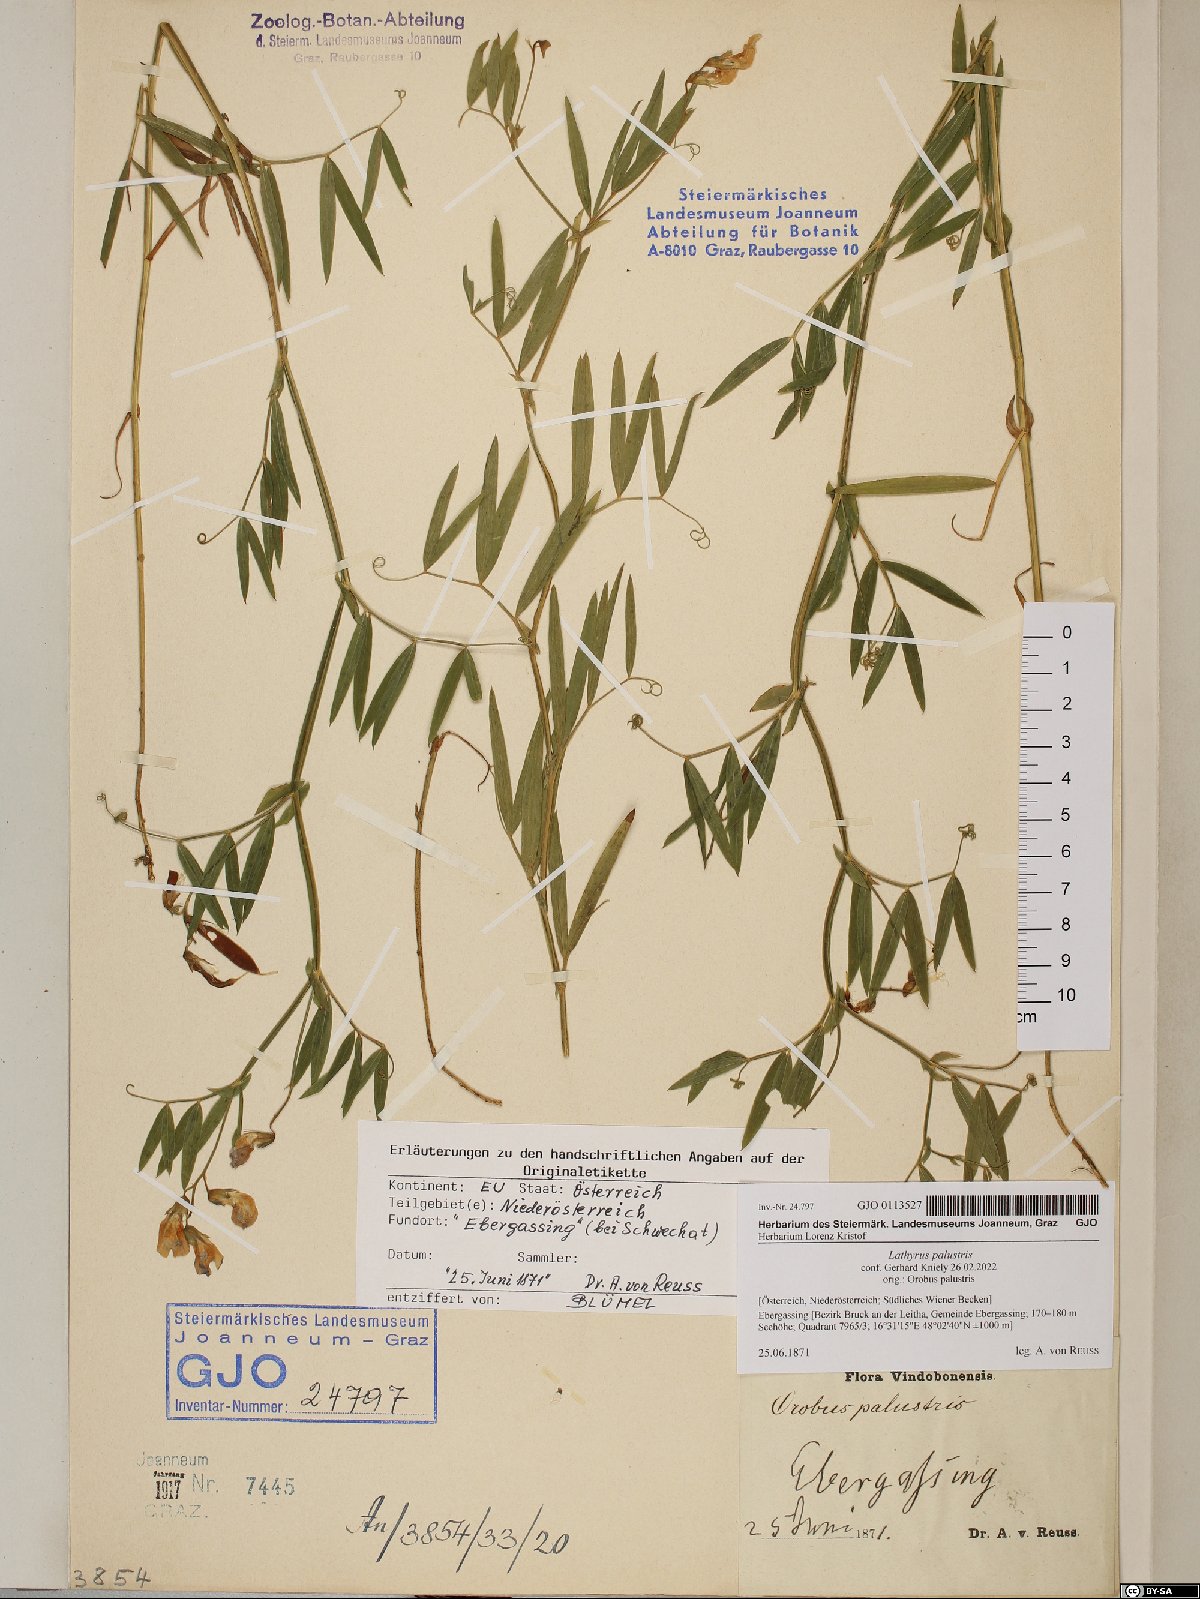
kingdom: Plantae
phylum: Tracheophyta
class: Magnoliopsida
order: Fabales
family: Fabaceae
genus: Lathyrus
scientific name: Lathyrus palustris
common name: Marsh pea
